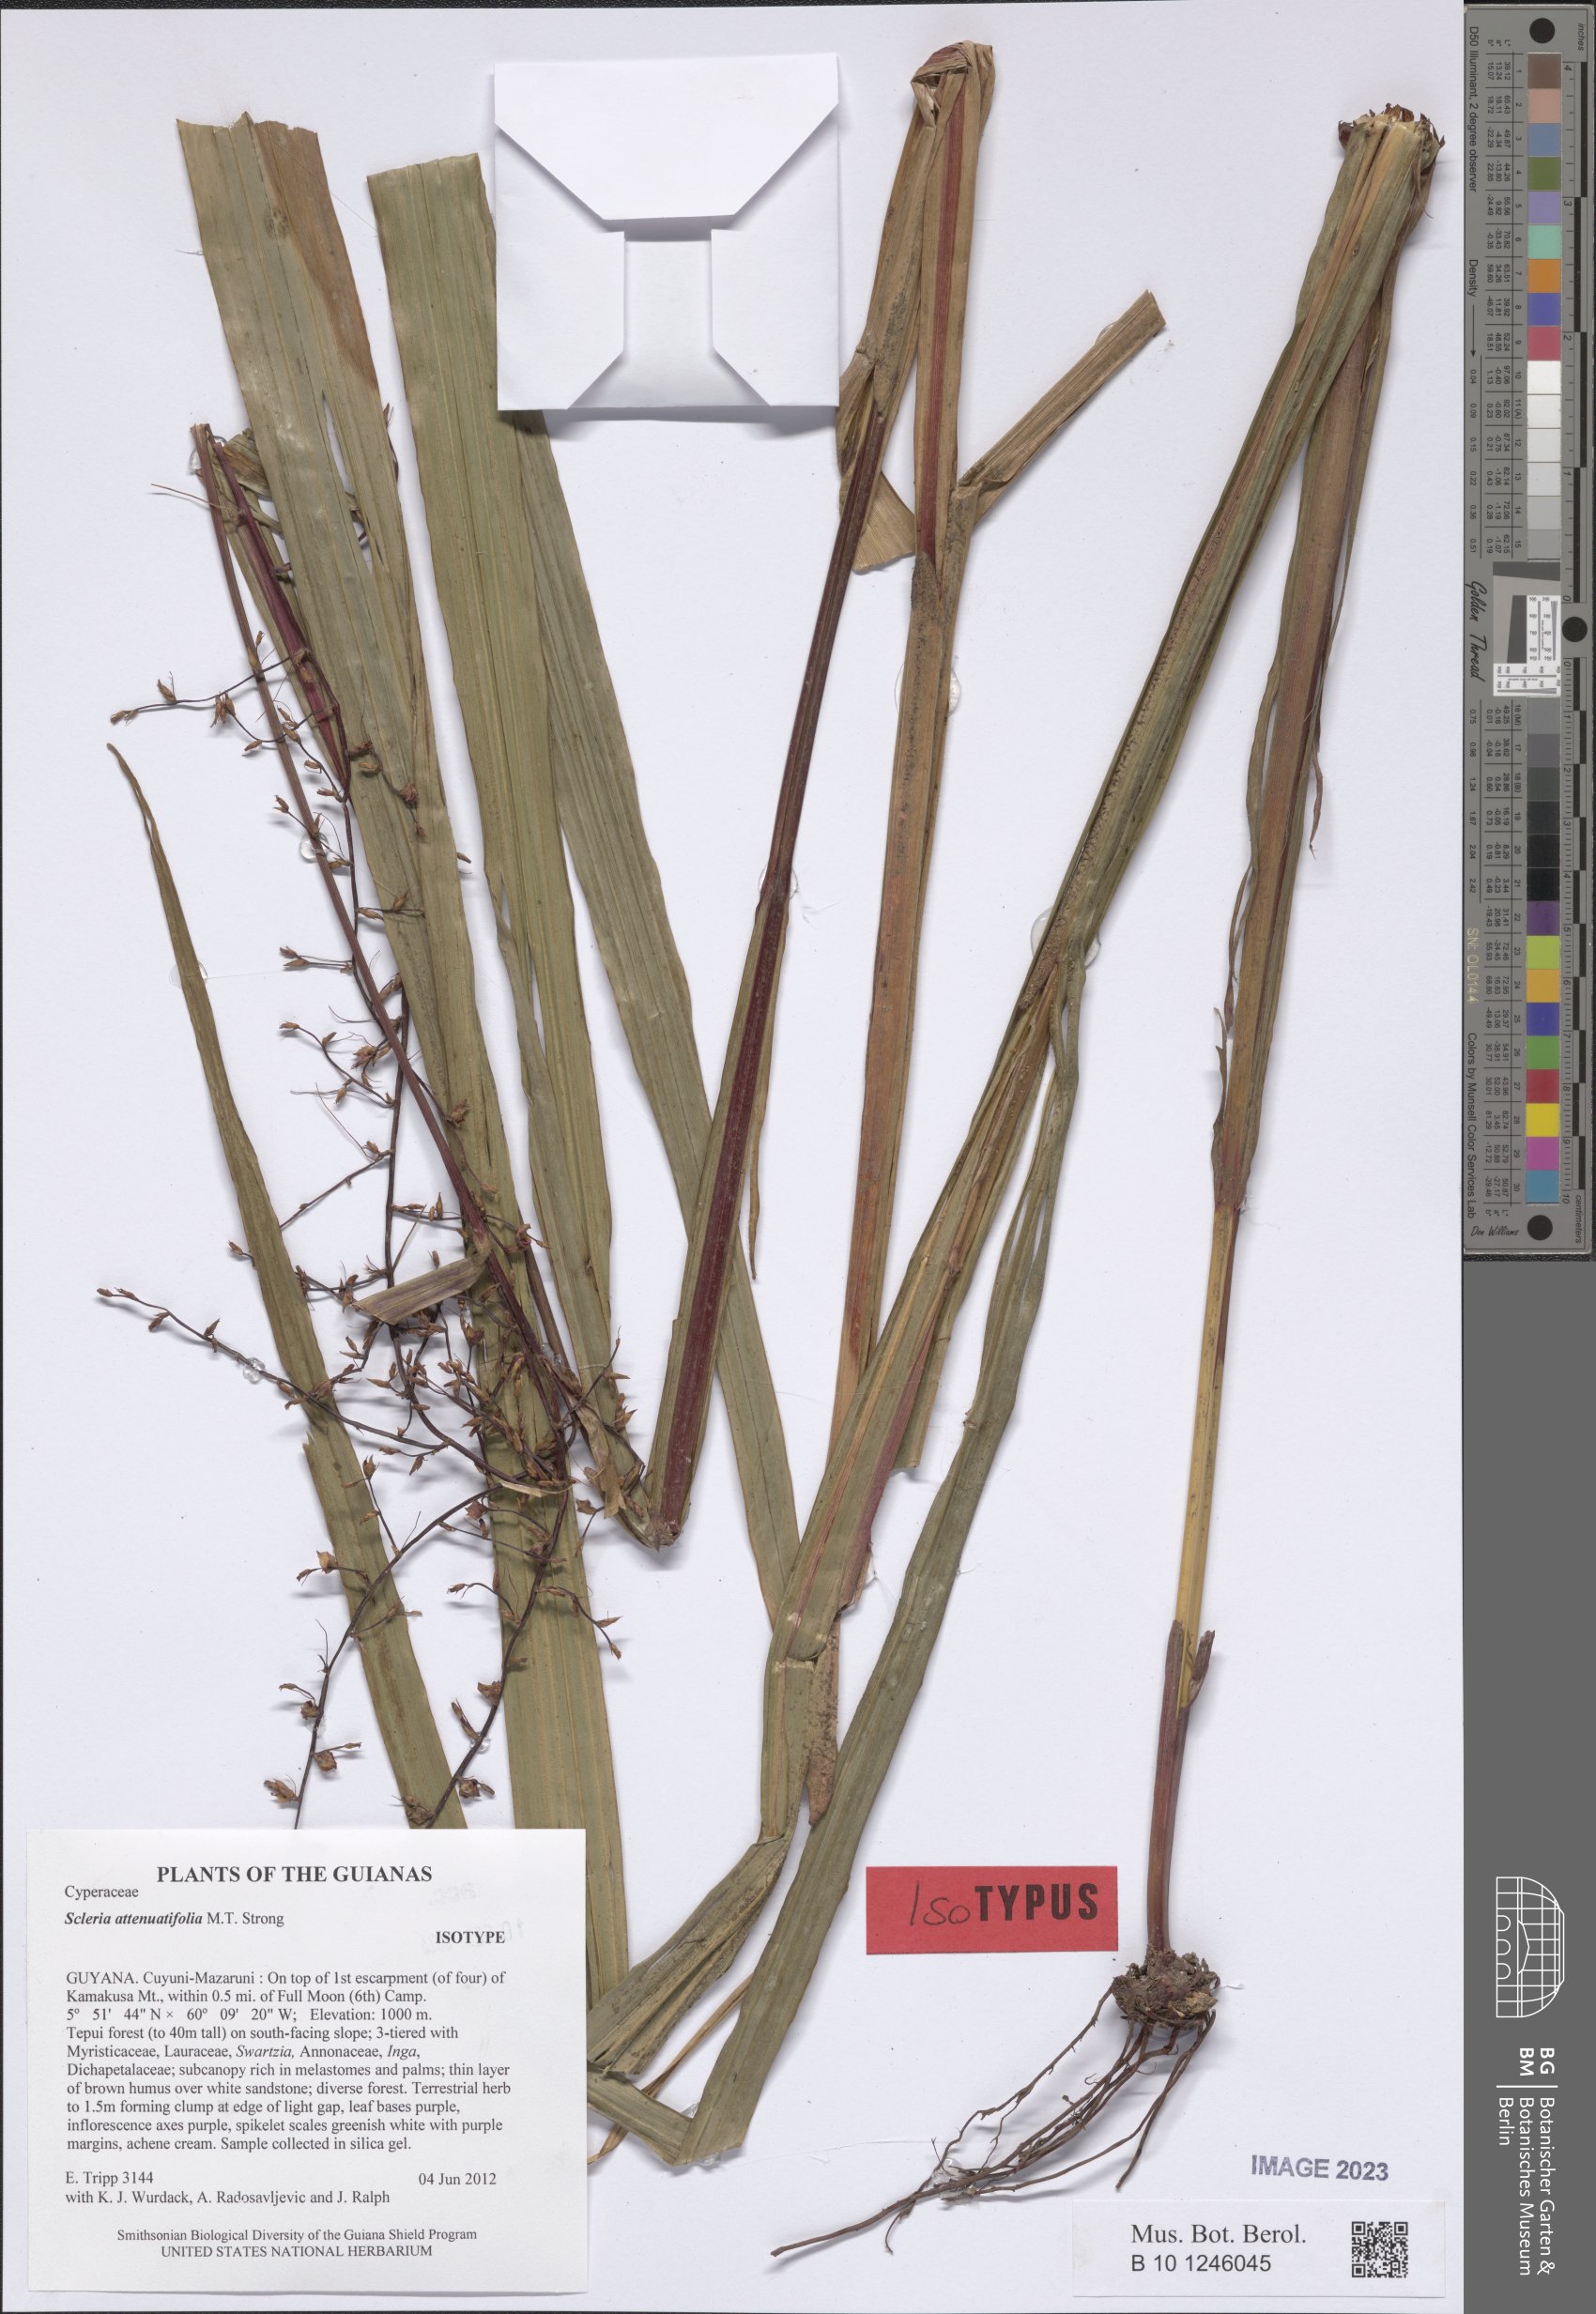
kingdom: Plantae
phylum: Tracheophyta
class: Liliopsida
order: Poales
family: Cyperaceae
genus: Scleria
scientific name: Scleria attenuatifolia
